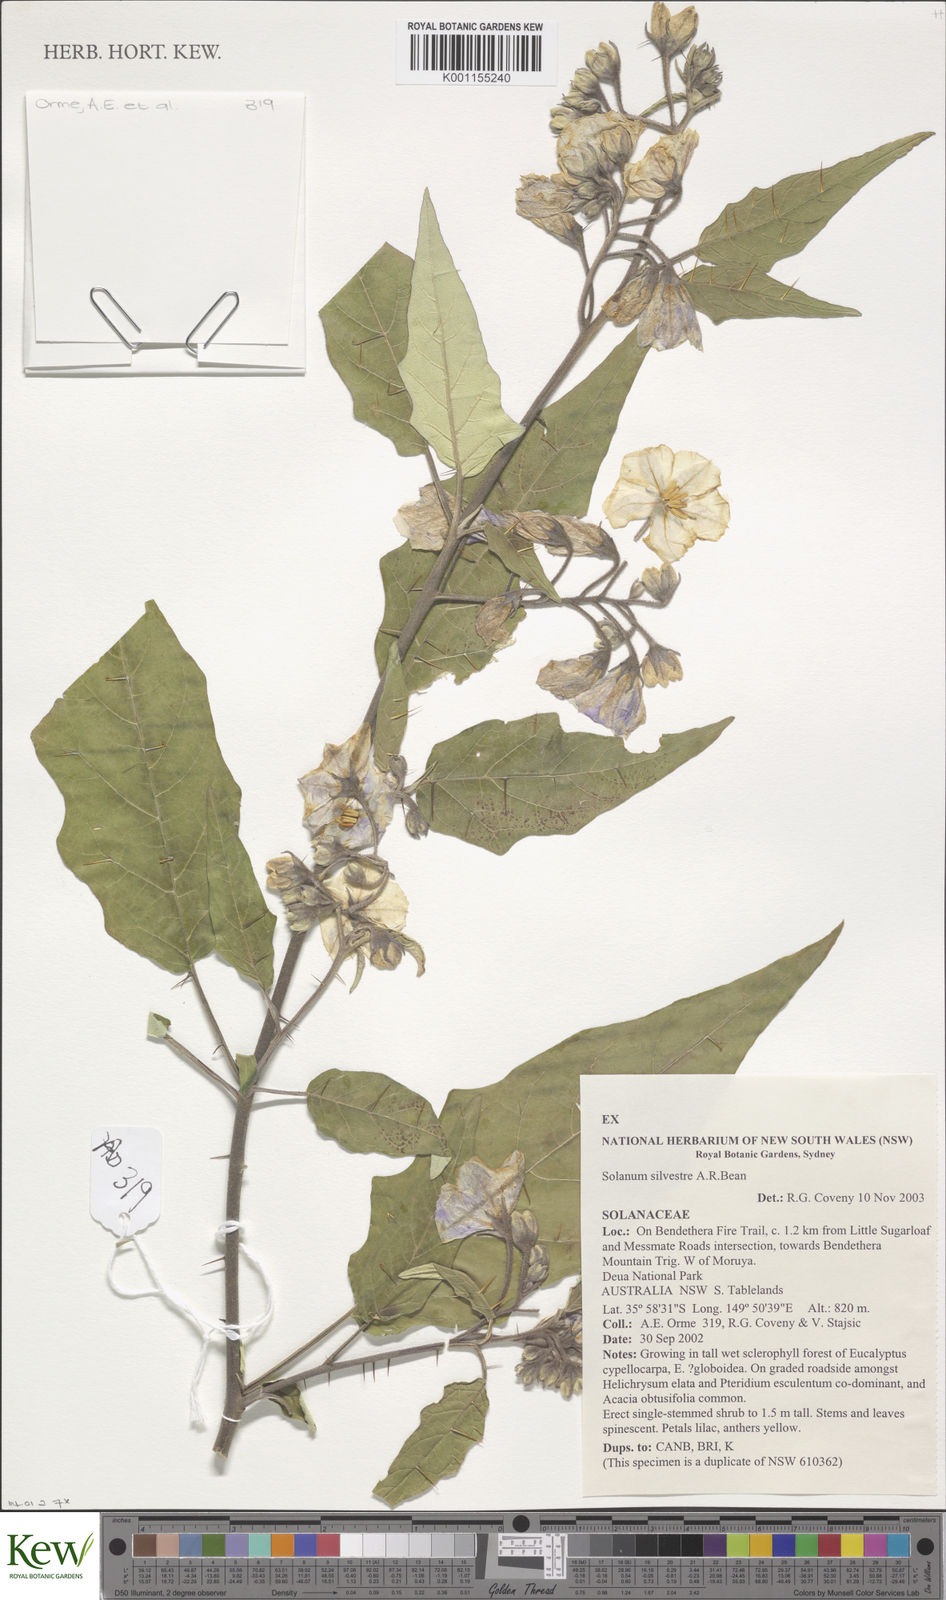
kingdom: Plantae
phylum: Tracheophyta
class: Magnoliopsida
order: Solanales
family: Solanaceae
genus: Solanum
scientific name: Solanum silvestre
